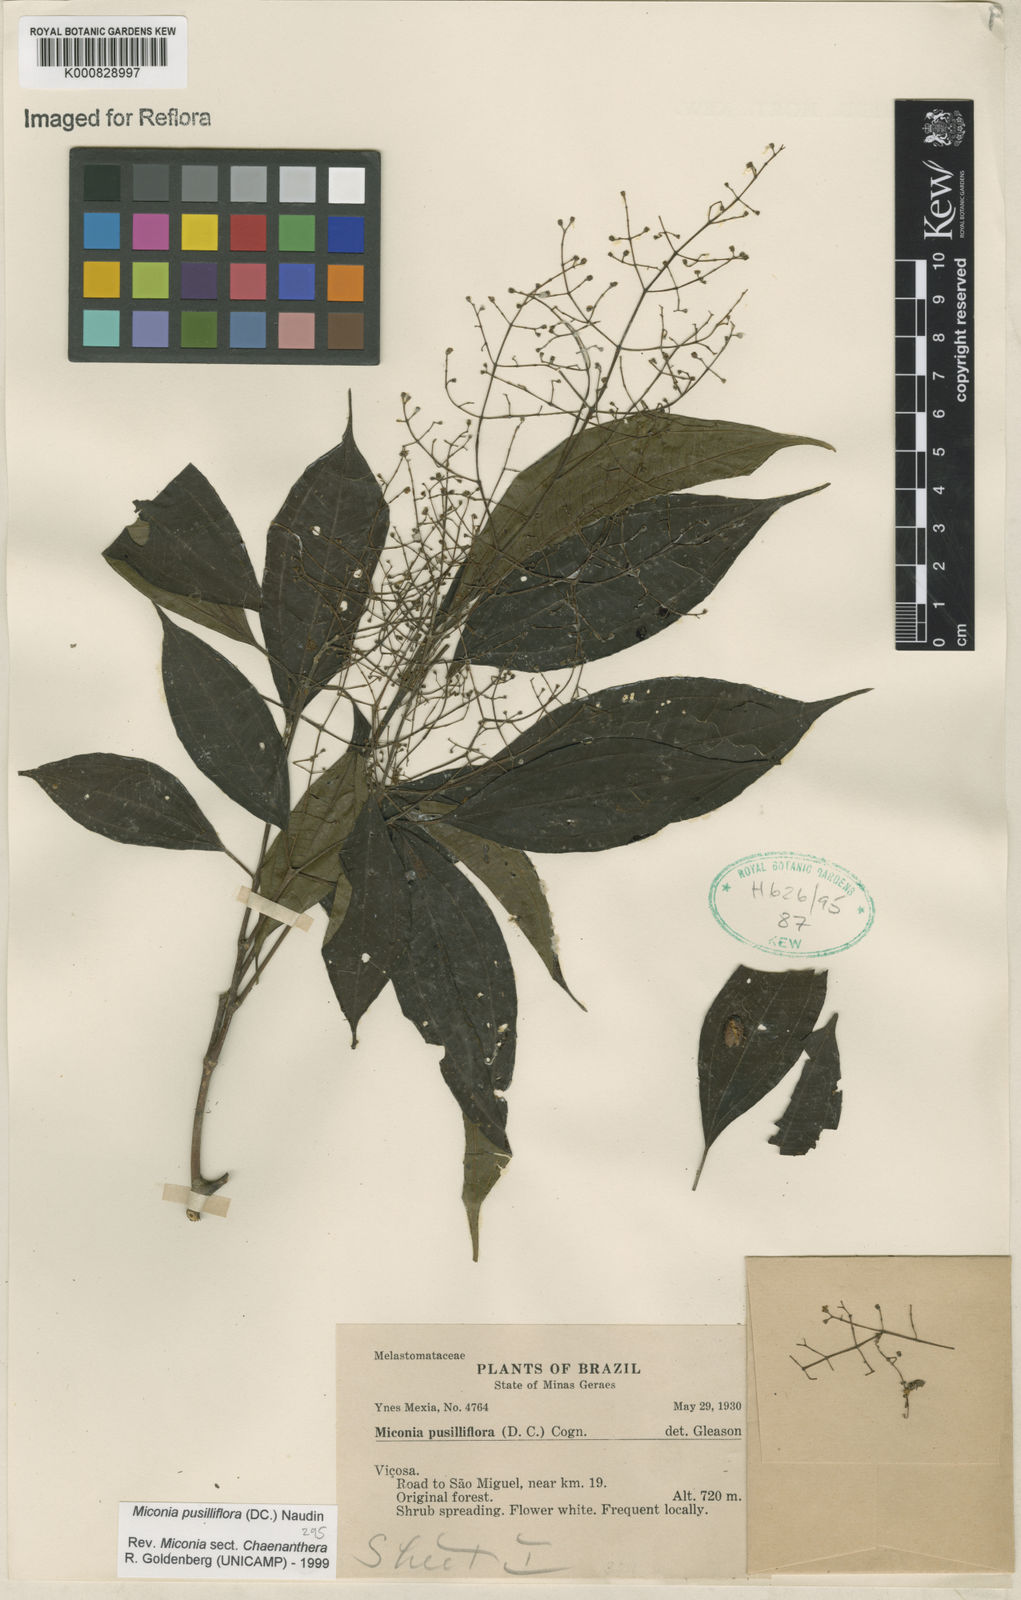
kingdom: Plantae
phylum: Tracheophyta
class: Magnoliopsida
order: Myrtales
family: Melastomataceae
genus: Miconia
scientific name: Miconia pusilliflora
